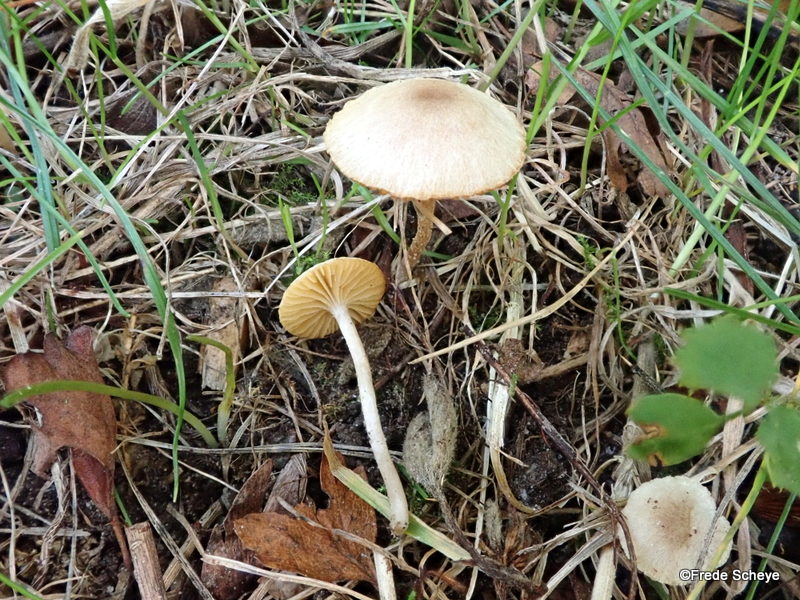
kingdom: Fungi
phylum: Basidiomycota
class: Agaricomycetes
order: Agaricales
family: Tubariaceae
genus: Tubaria
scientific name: Tubaria dispersa
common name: tjørne-fnughat
